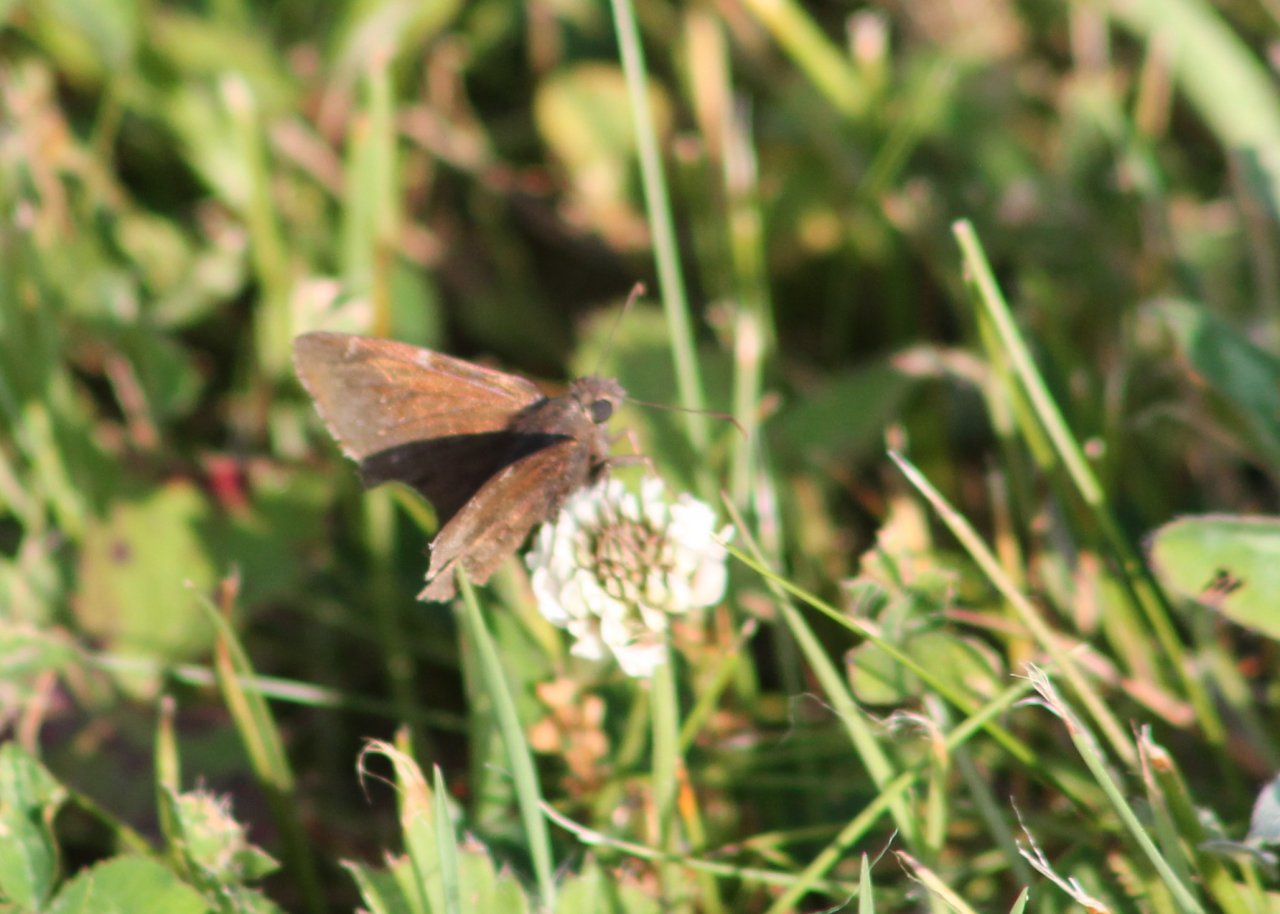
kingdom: Animalia
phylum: Arthropoda
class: Insecta
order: Lepidoptera
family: Hesperiidae
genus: Erynnis
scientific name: Erynnis
